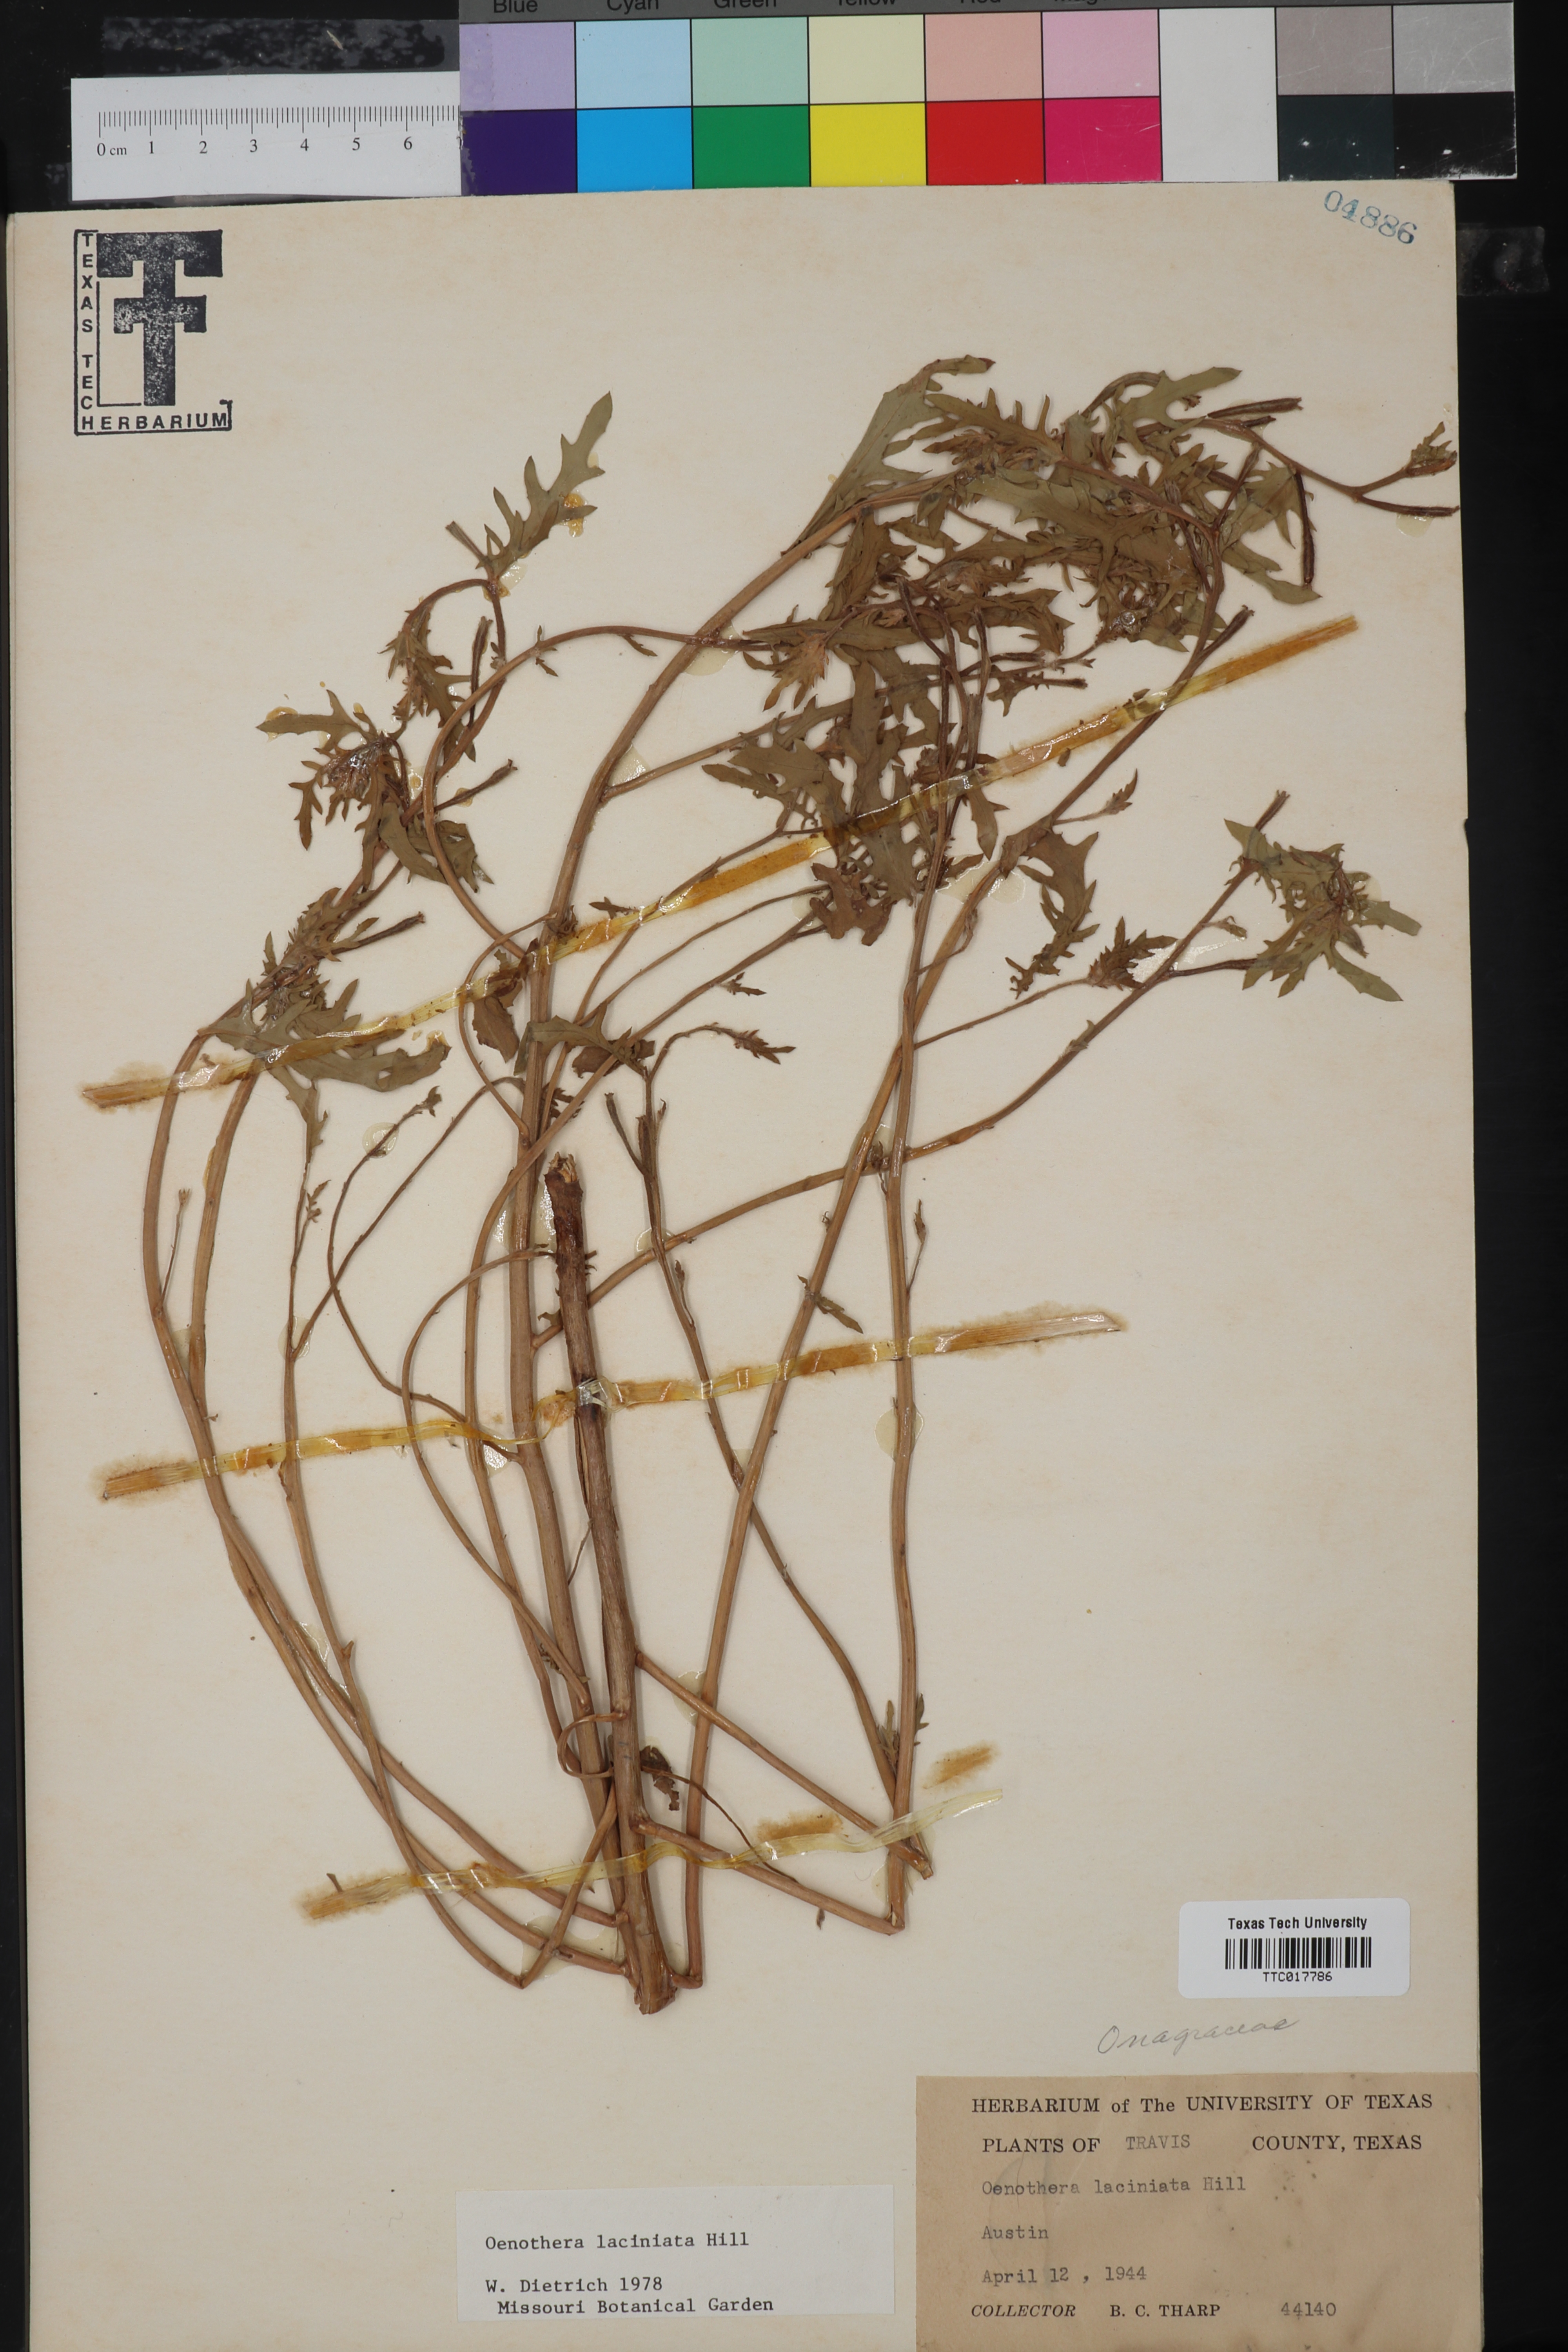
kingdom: Plantae
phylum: Tracheophyta
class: Magnoliopsida
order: Myrtales
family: Onagraceae
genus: Oenothera
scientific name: Oenothera laciniata
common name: Cut-leaved evening-primrose
